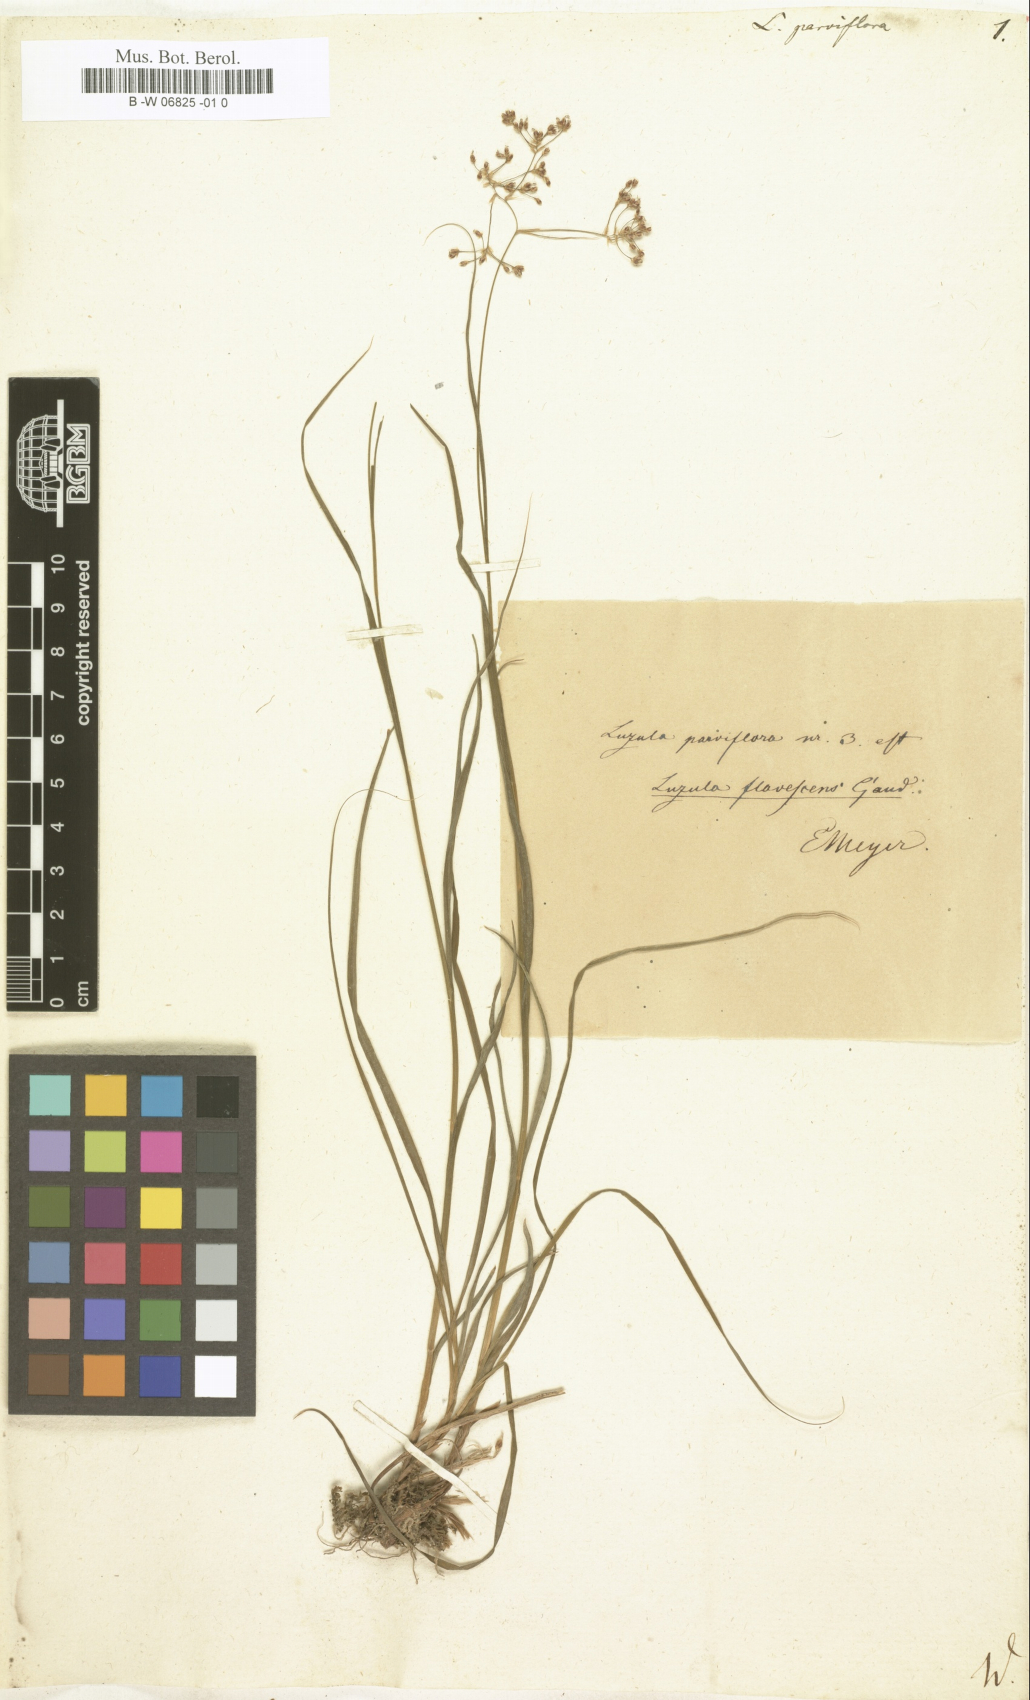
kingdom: Plantae
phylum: Tracheophyta
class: Liliopsida
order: Poales
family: Juncaceae
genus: Luzula
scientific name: Luzula parviflora
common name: Millet woodrush
